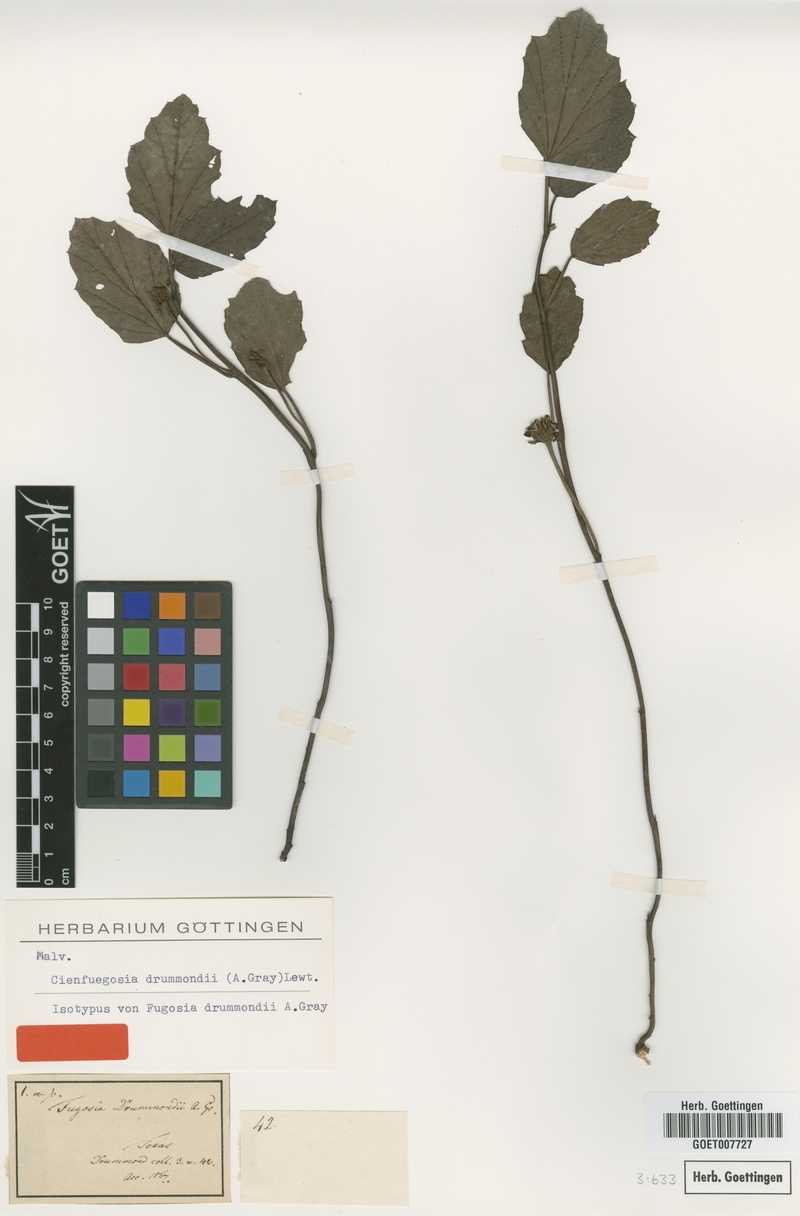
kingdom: Plantae
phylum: Tracheophyta
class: Magnoliopsida
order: Malvales
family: Malvaceae
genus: Cienfuegosia
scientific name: Cienfuegosia drummondii
